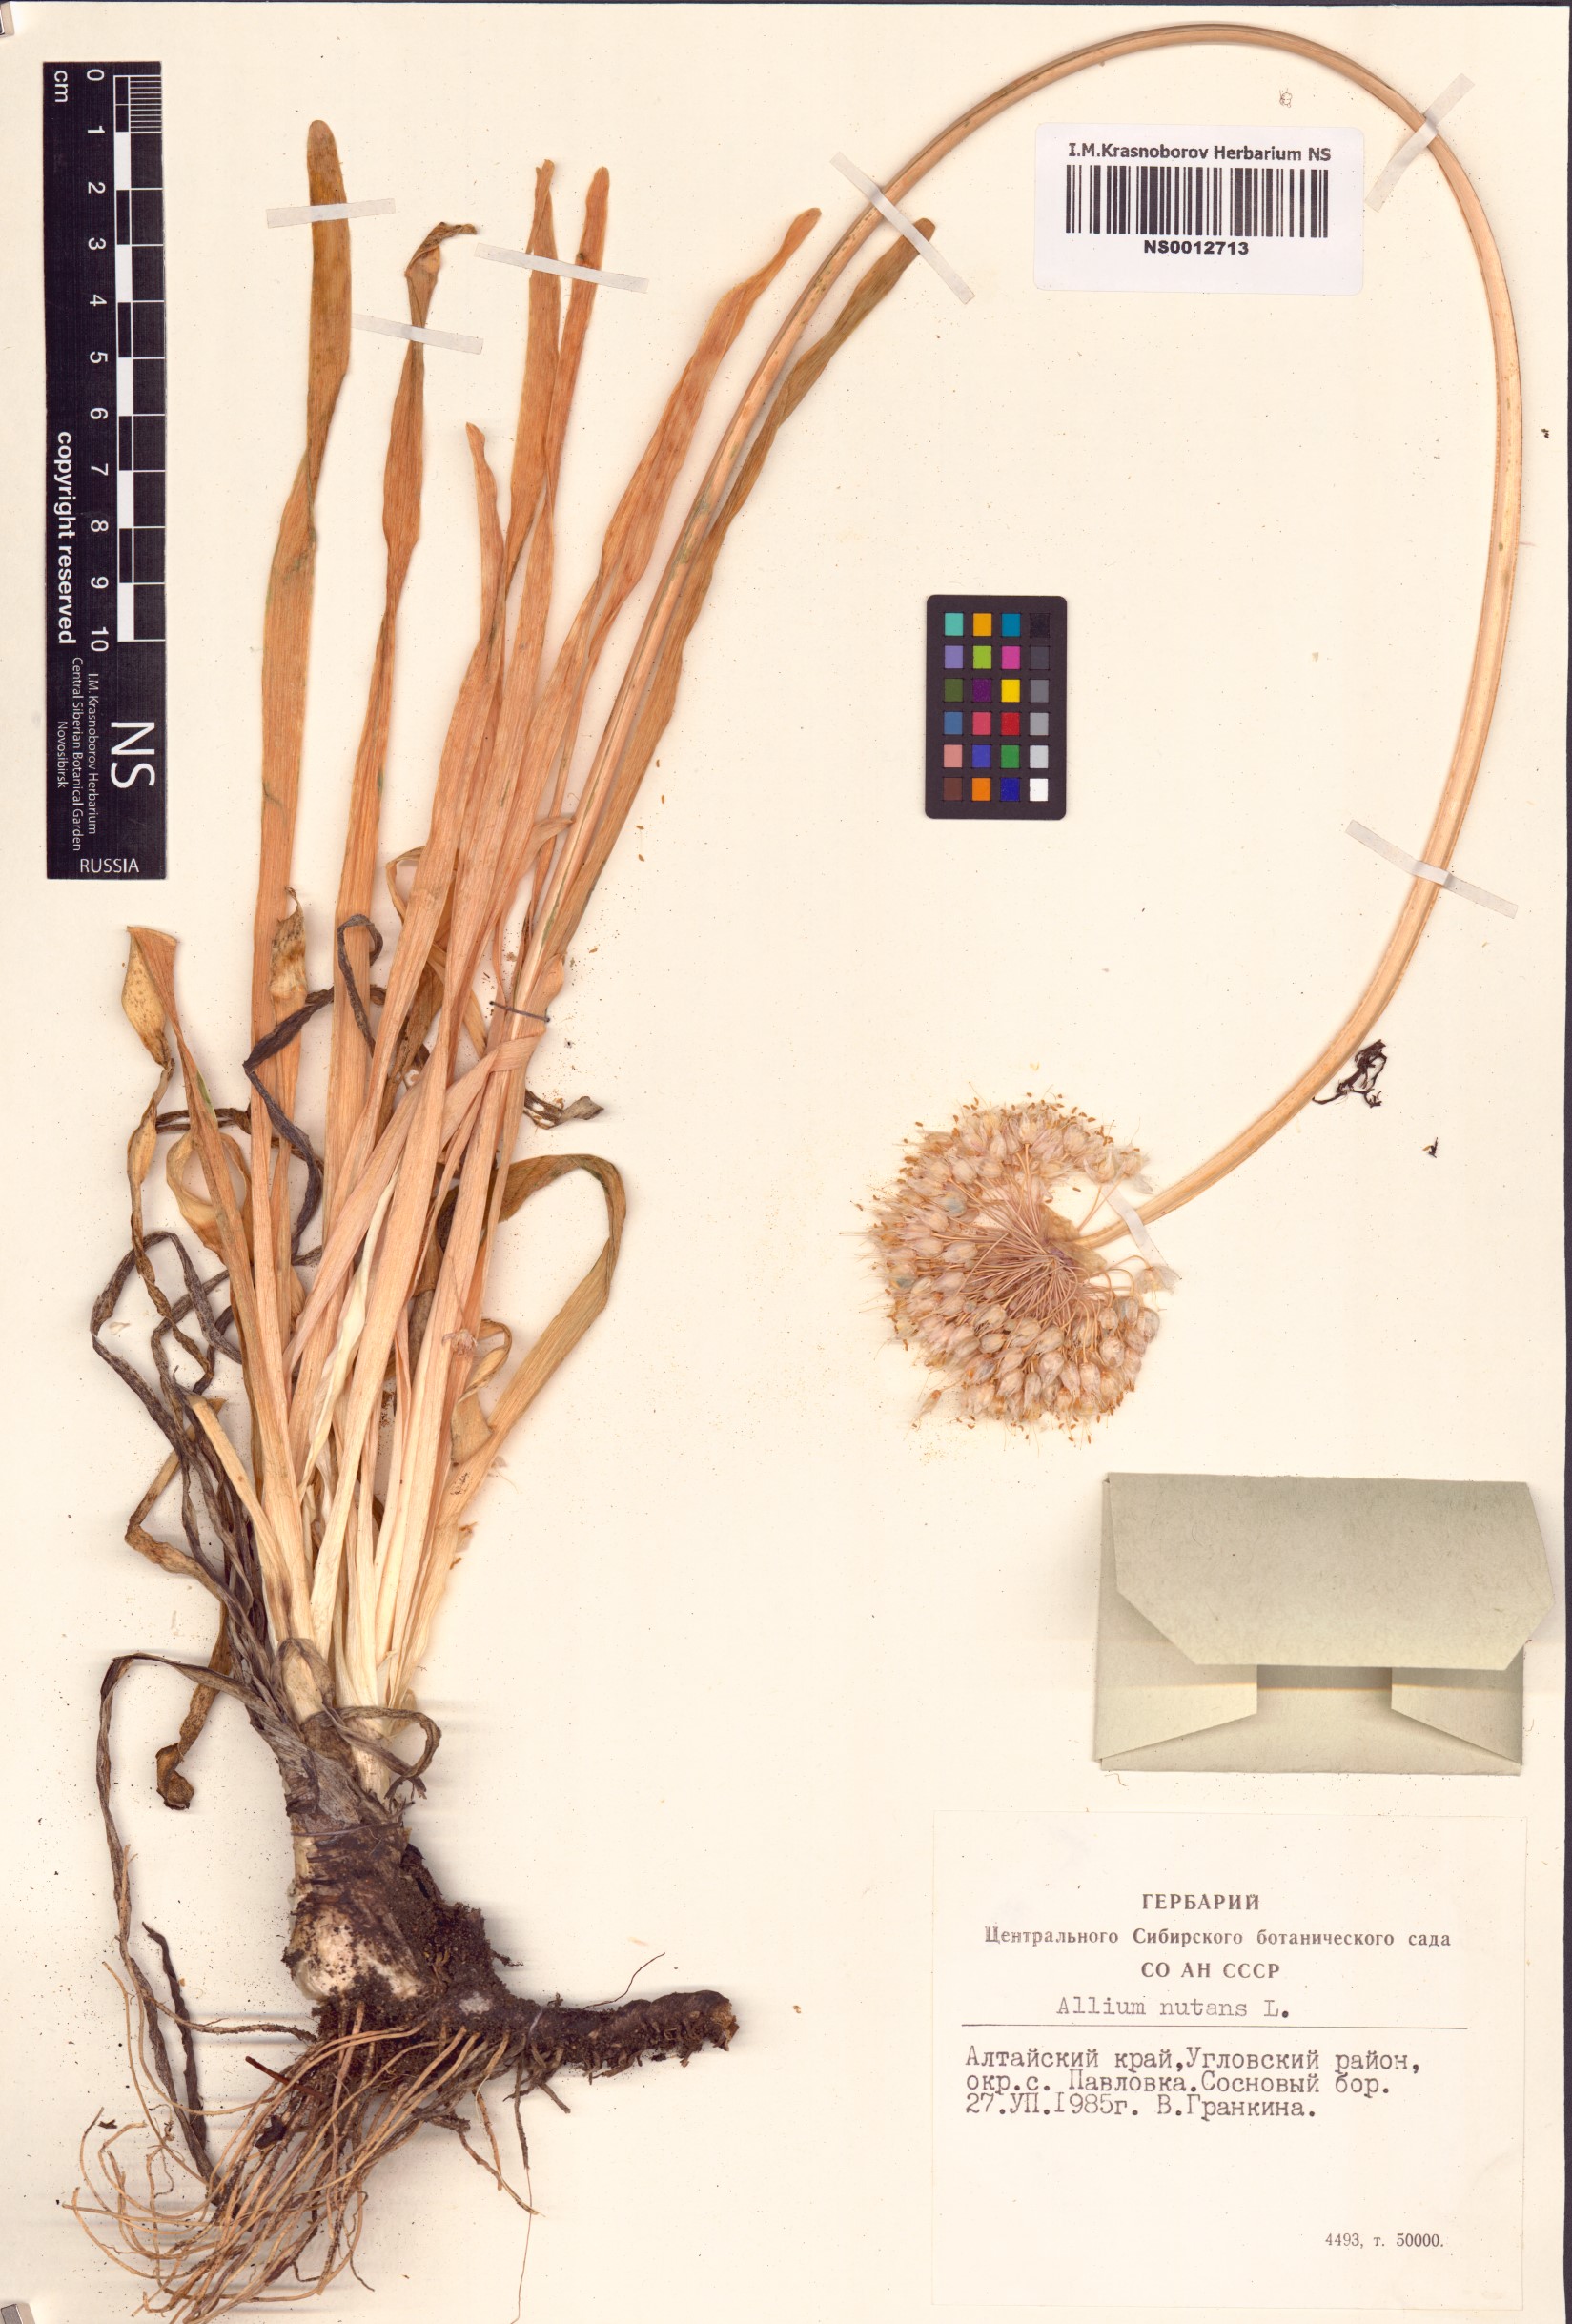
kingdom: Plantae
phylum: Tracheophyta
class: Liliopsida
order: Asparagales
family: Amaryllidaceae
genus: Allium
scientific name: Allium nutans
